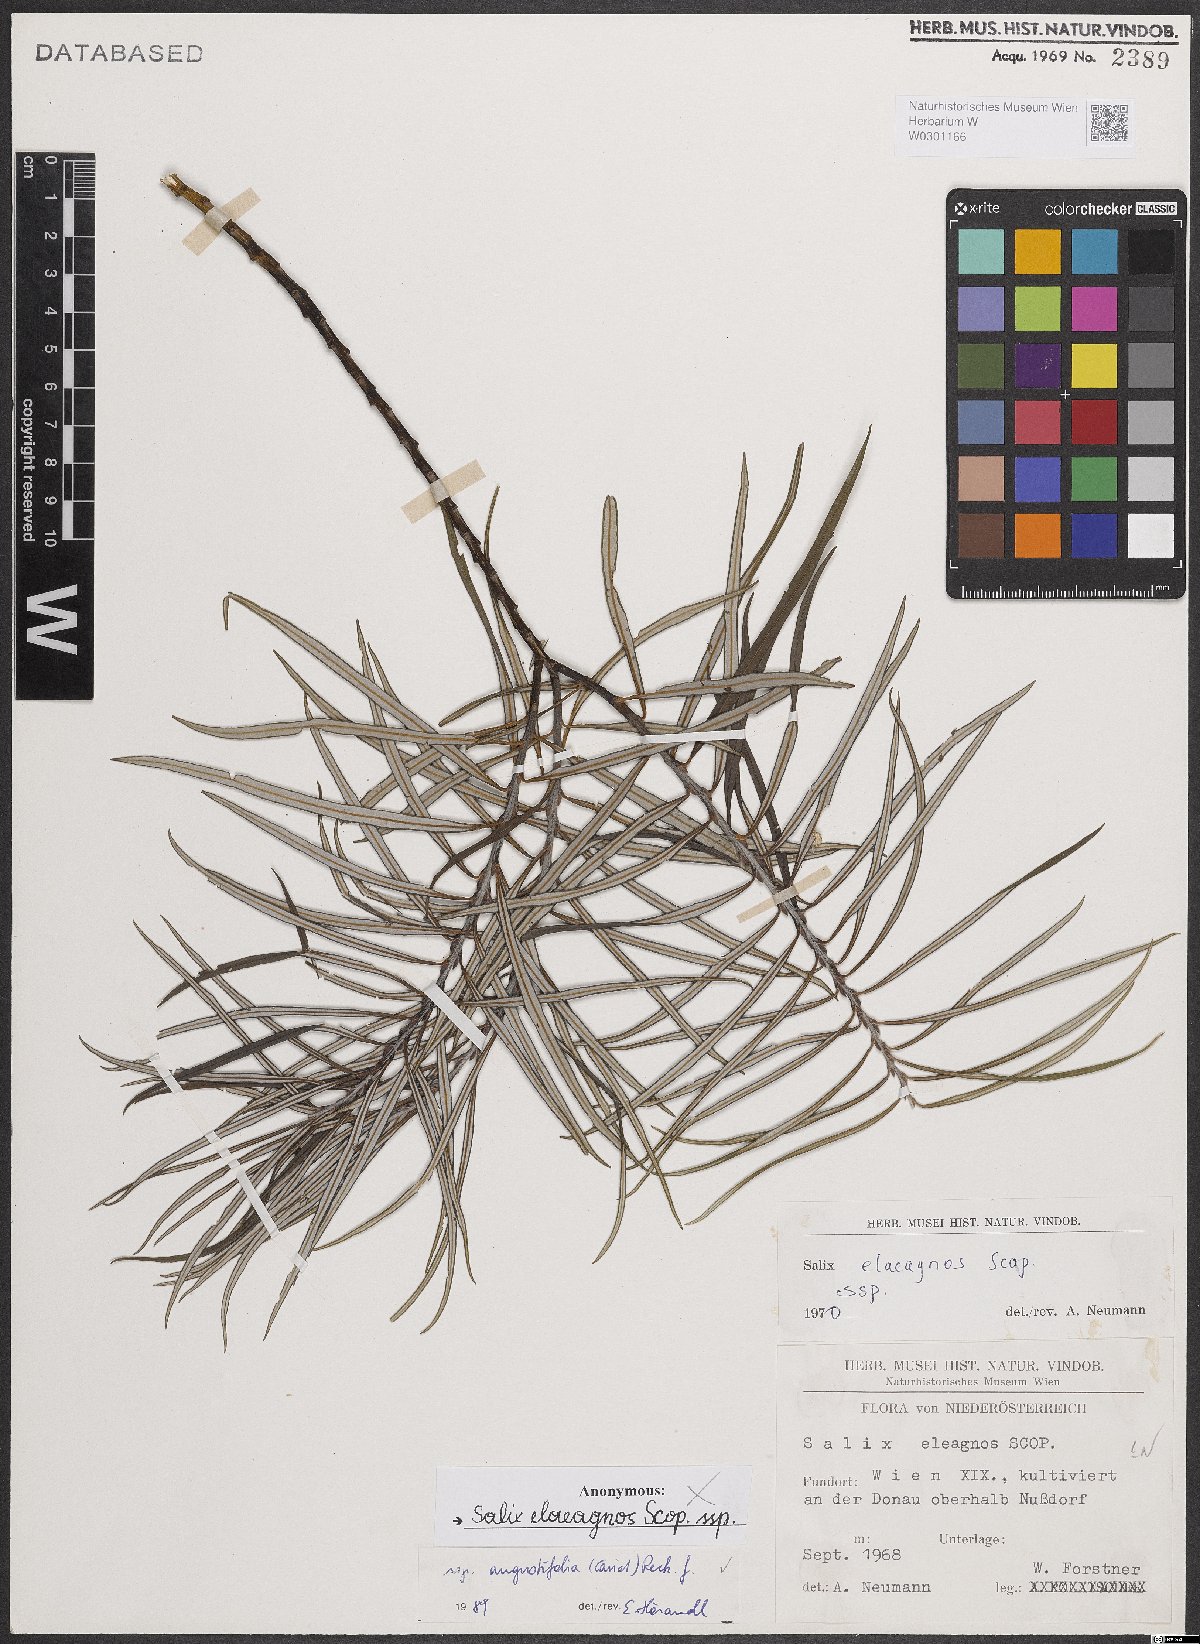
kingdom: Plantae
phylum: Tracheophyta
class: Magnoliopsida
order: Malpighiales
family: Salicaceae
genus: Salix
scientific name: Salix eleagnos
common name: Elaeagnus willow
